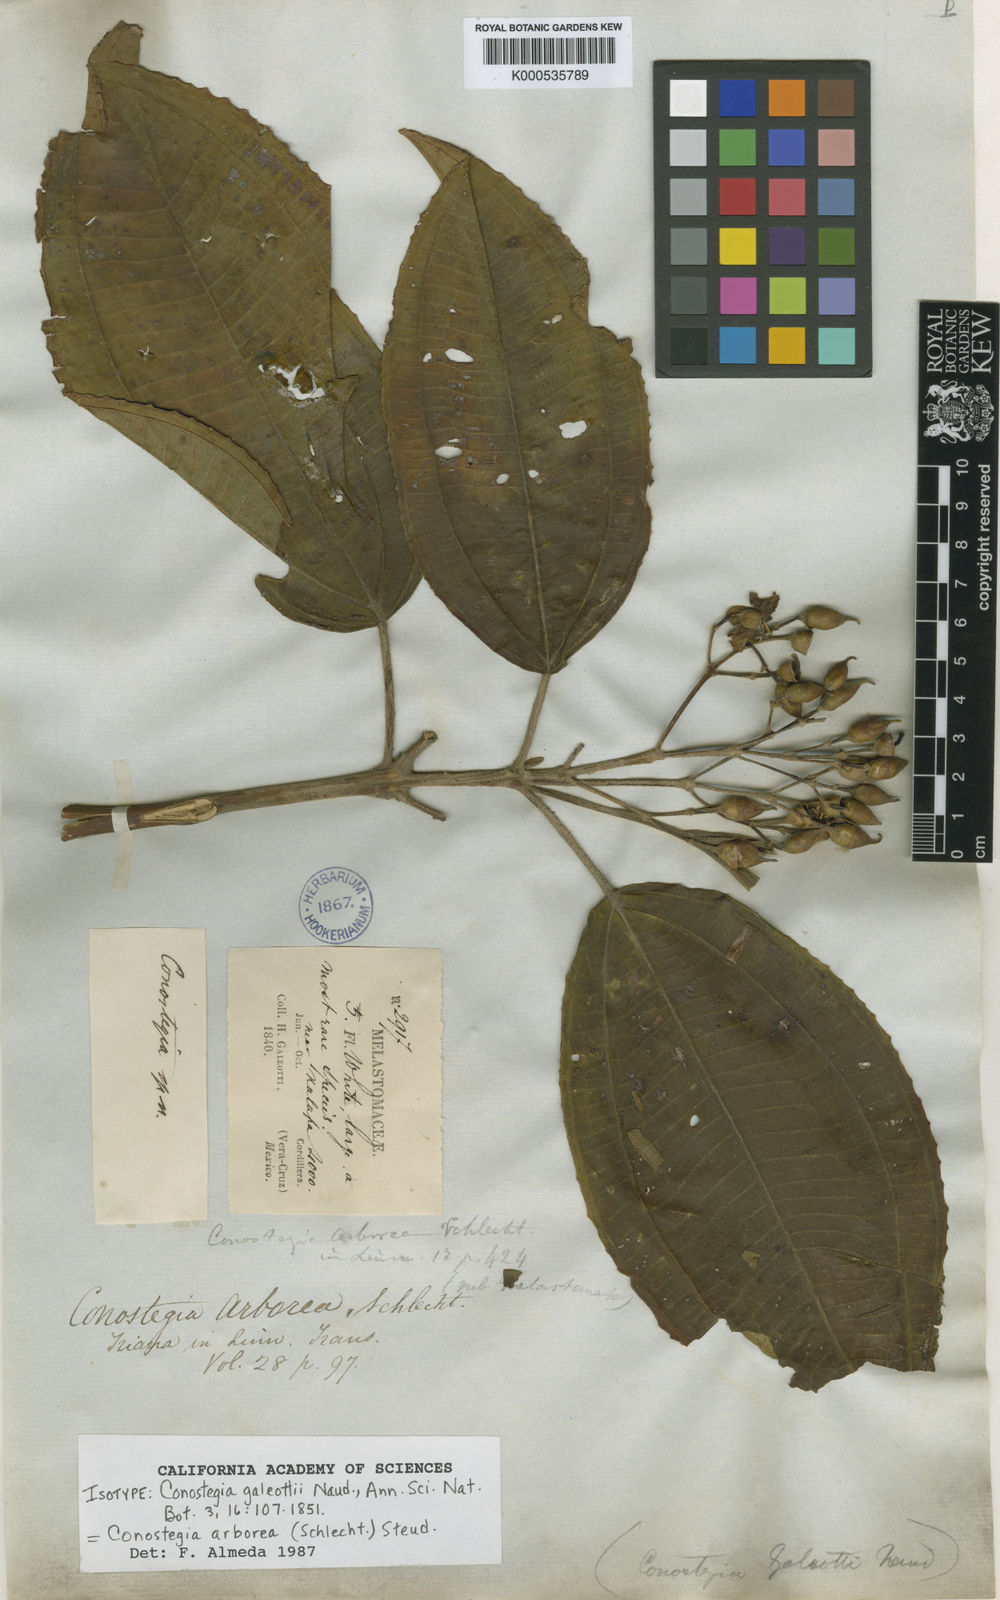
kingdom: Plantae
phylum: Tracheophyta
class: Magnoliopsida
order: Myrtales
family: Melastomataceae
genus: Miconia
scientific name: Miconia galeottii
